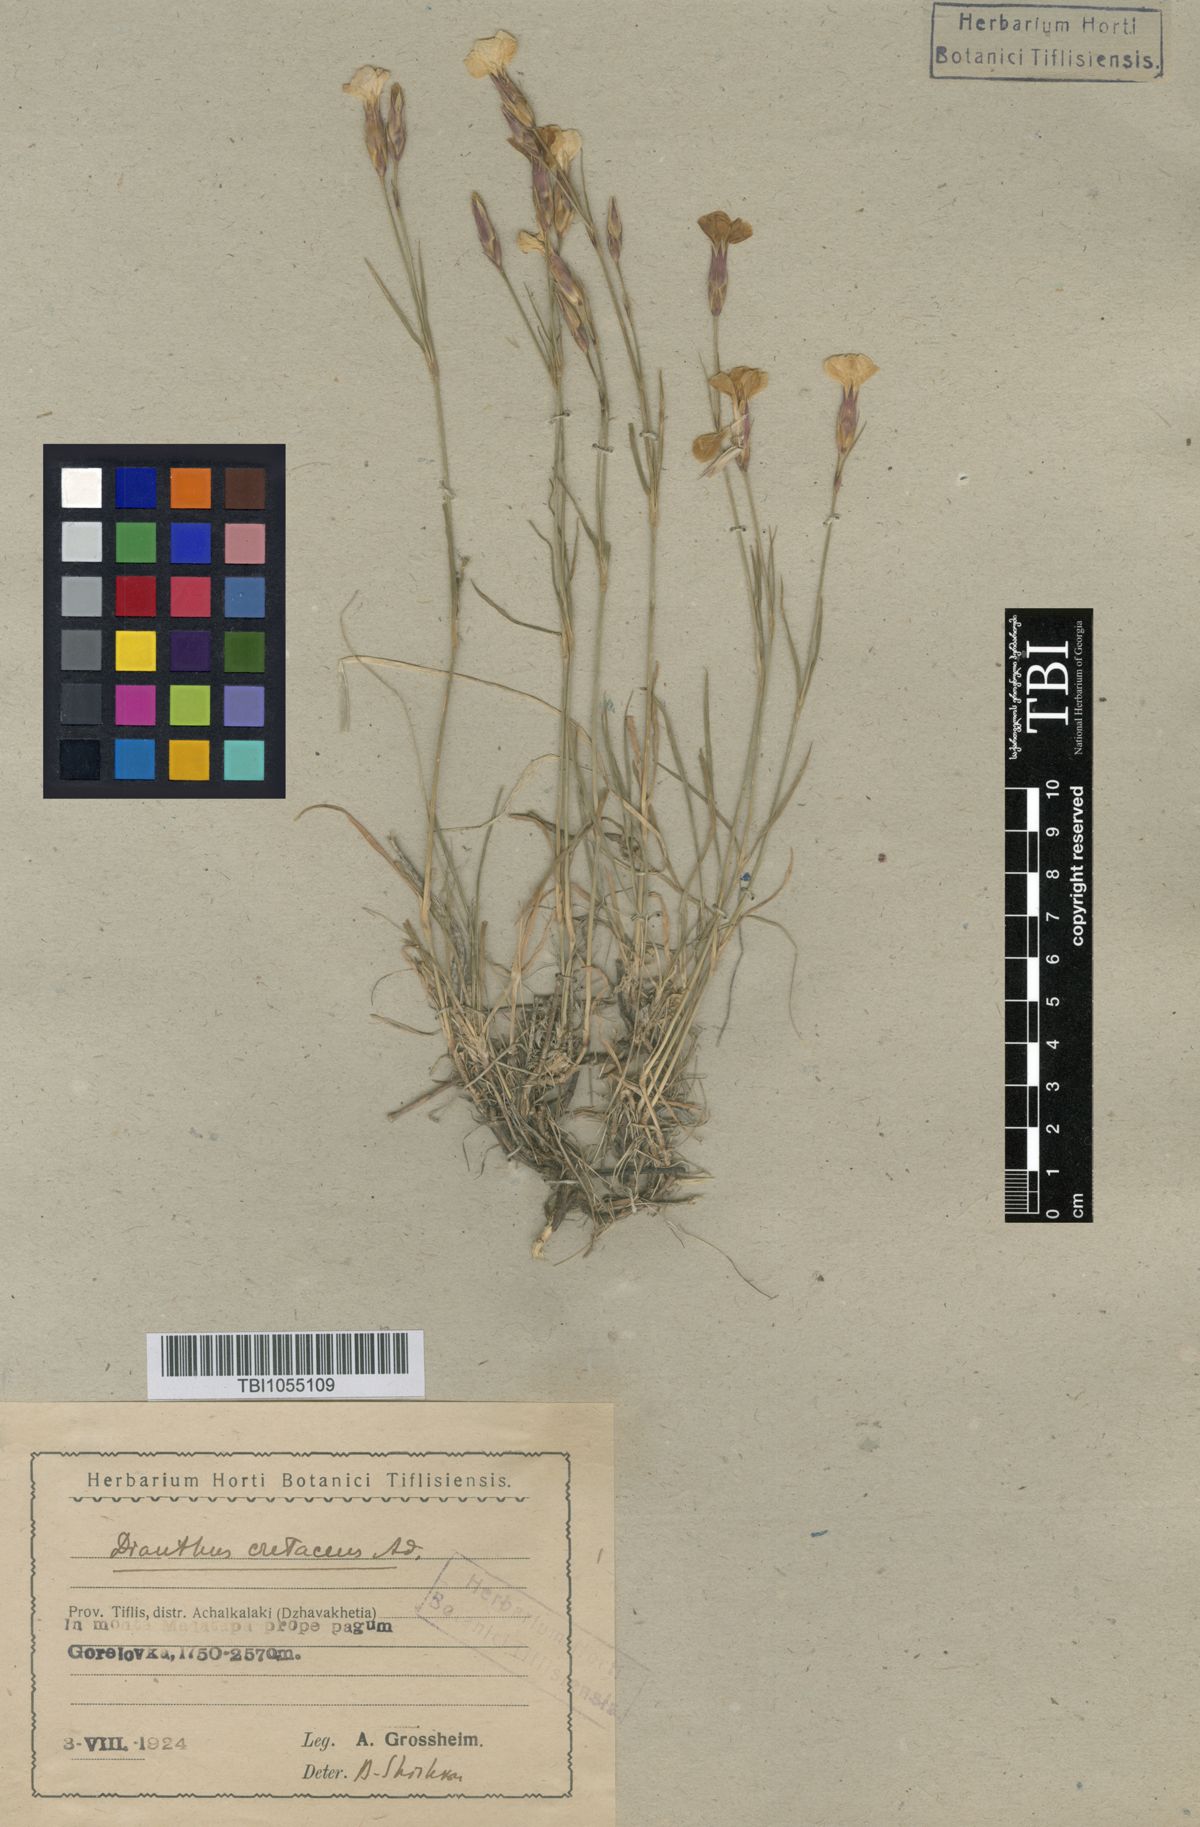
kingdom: Plantae
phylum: Tracheophyta
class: Magnoliopsida
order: Caryophyllales
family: Caryophyllaceae
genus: Dianthus
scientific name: Dianthus cretaceus
